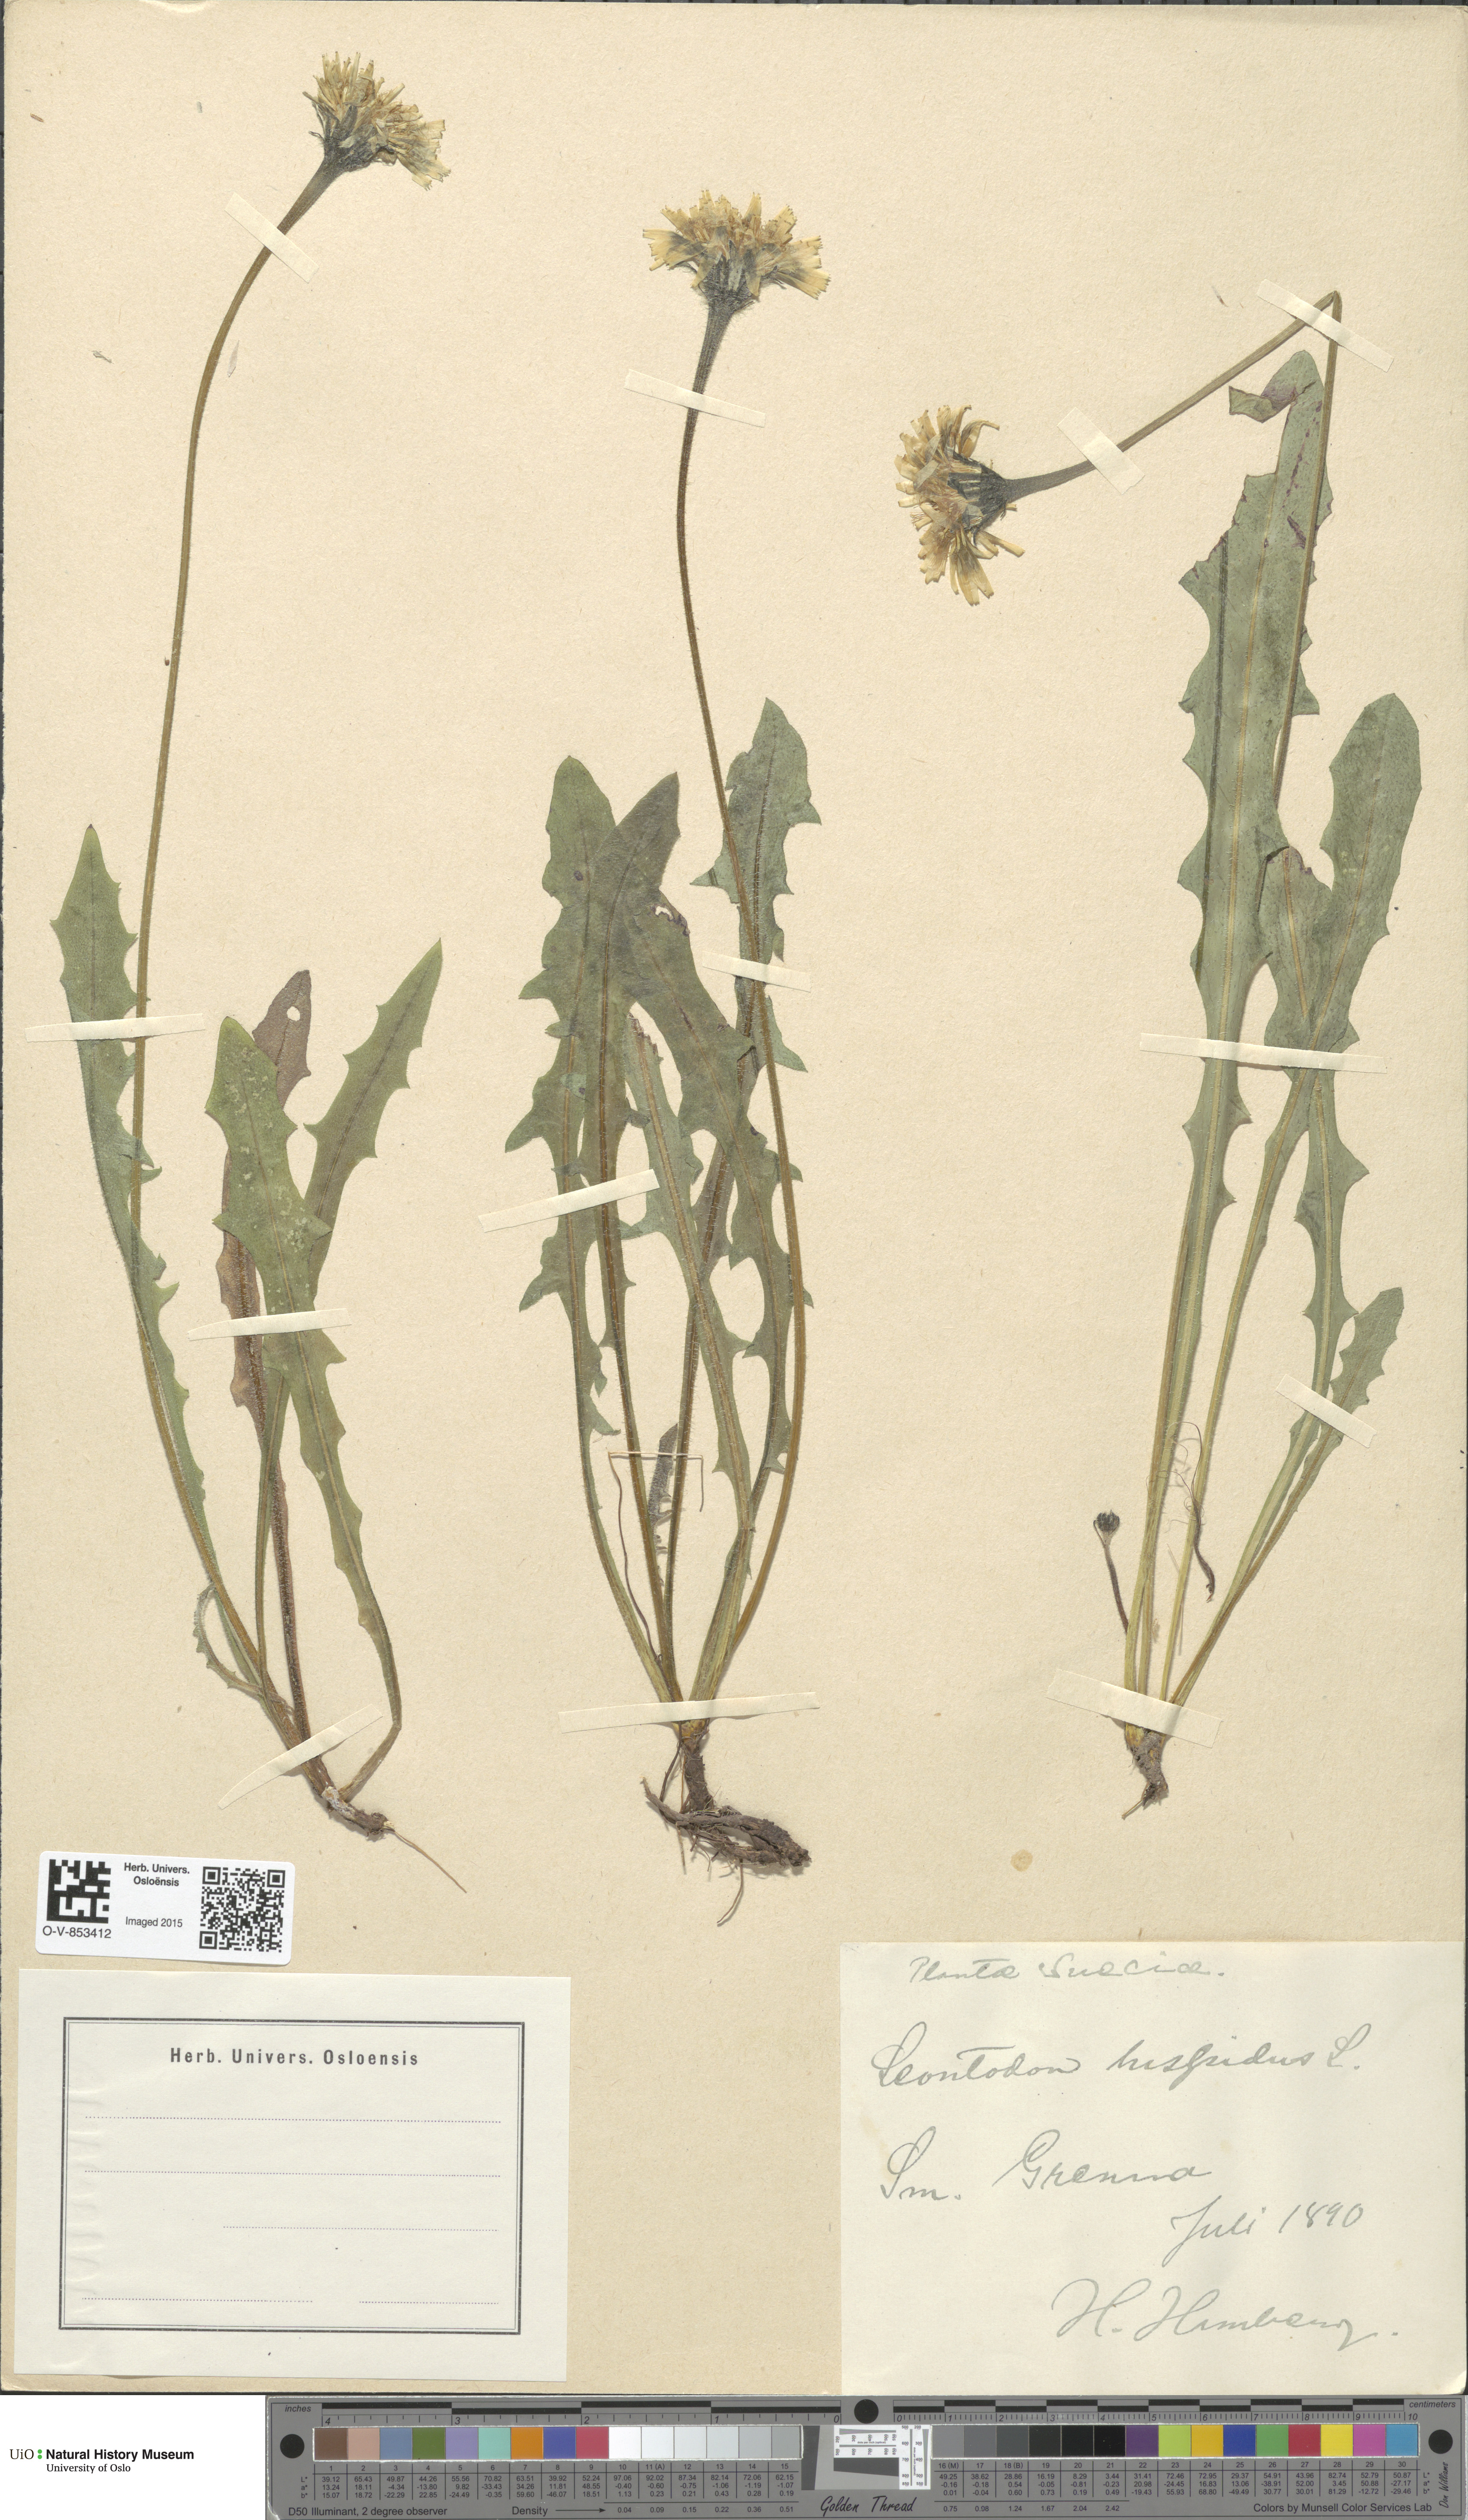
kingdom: Plantae
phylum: Tracheophyta
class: Magnoliopsida
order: Asterales
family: Asteraceae
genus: Leontodon
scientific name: Leontodon hispidus
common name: Rough hawkbit
